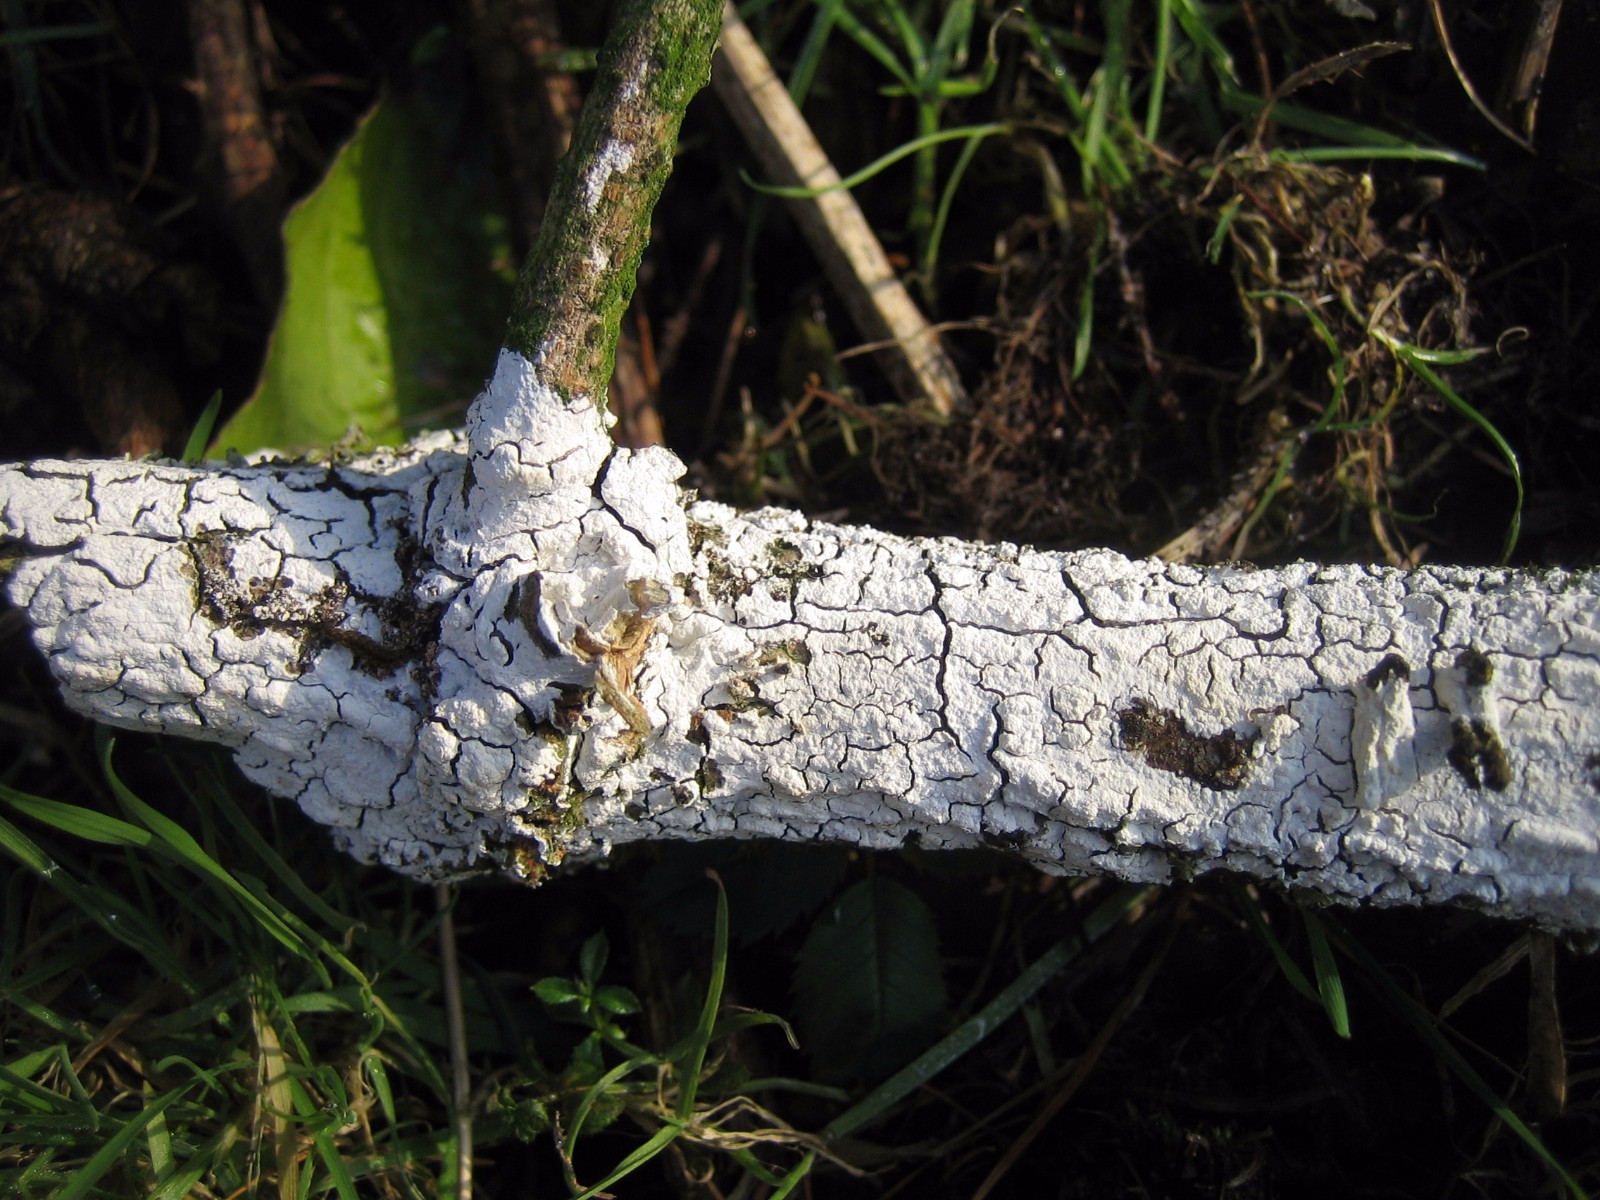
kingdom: Fungi
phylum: Basidiomycota
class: Agaricomycetes
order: Corticiales
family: Corticiaceae
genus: Lyomyces
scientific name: Lyomyces sambuci
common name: almindelig hyldehinde
